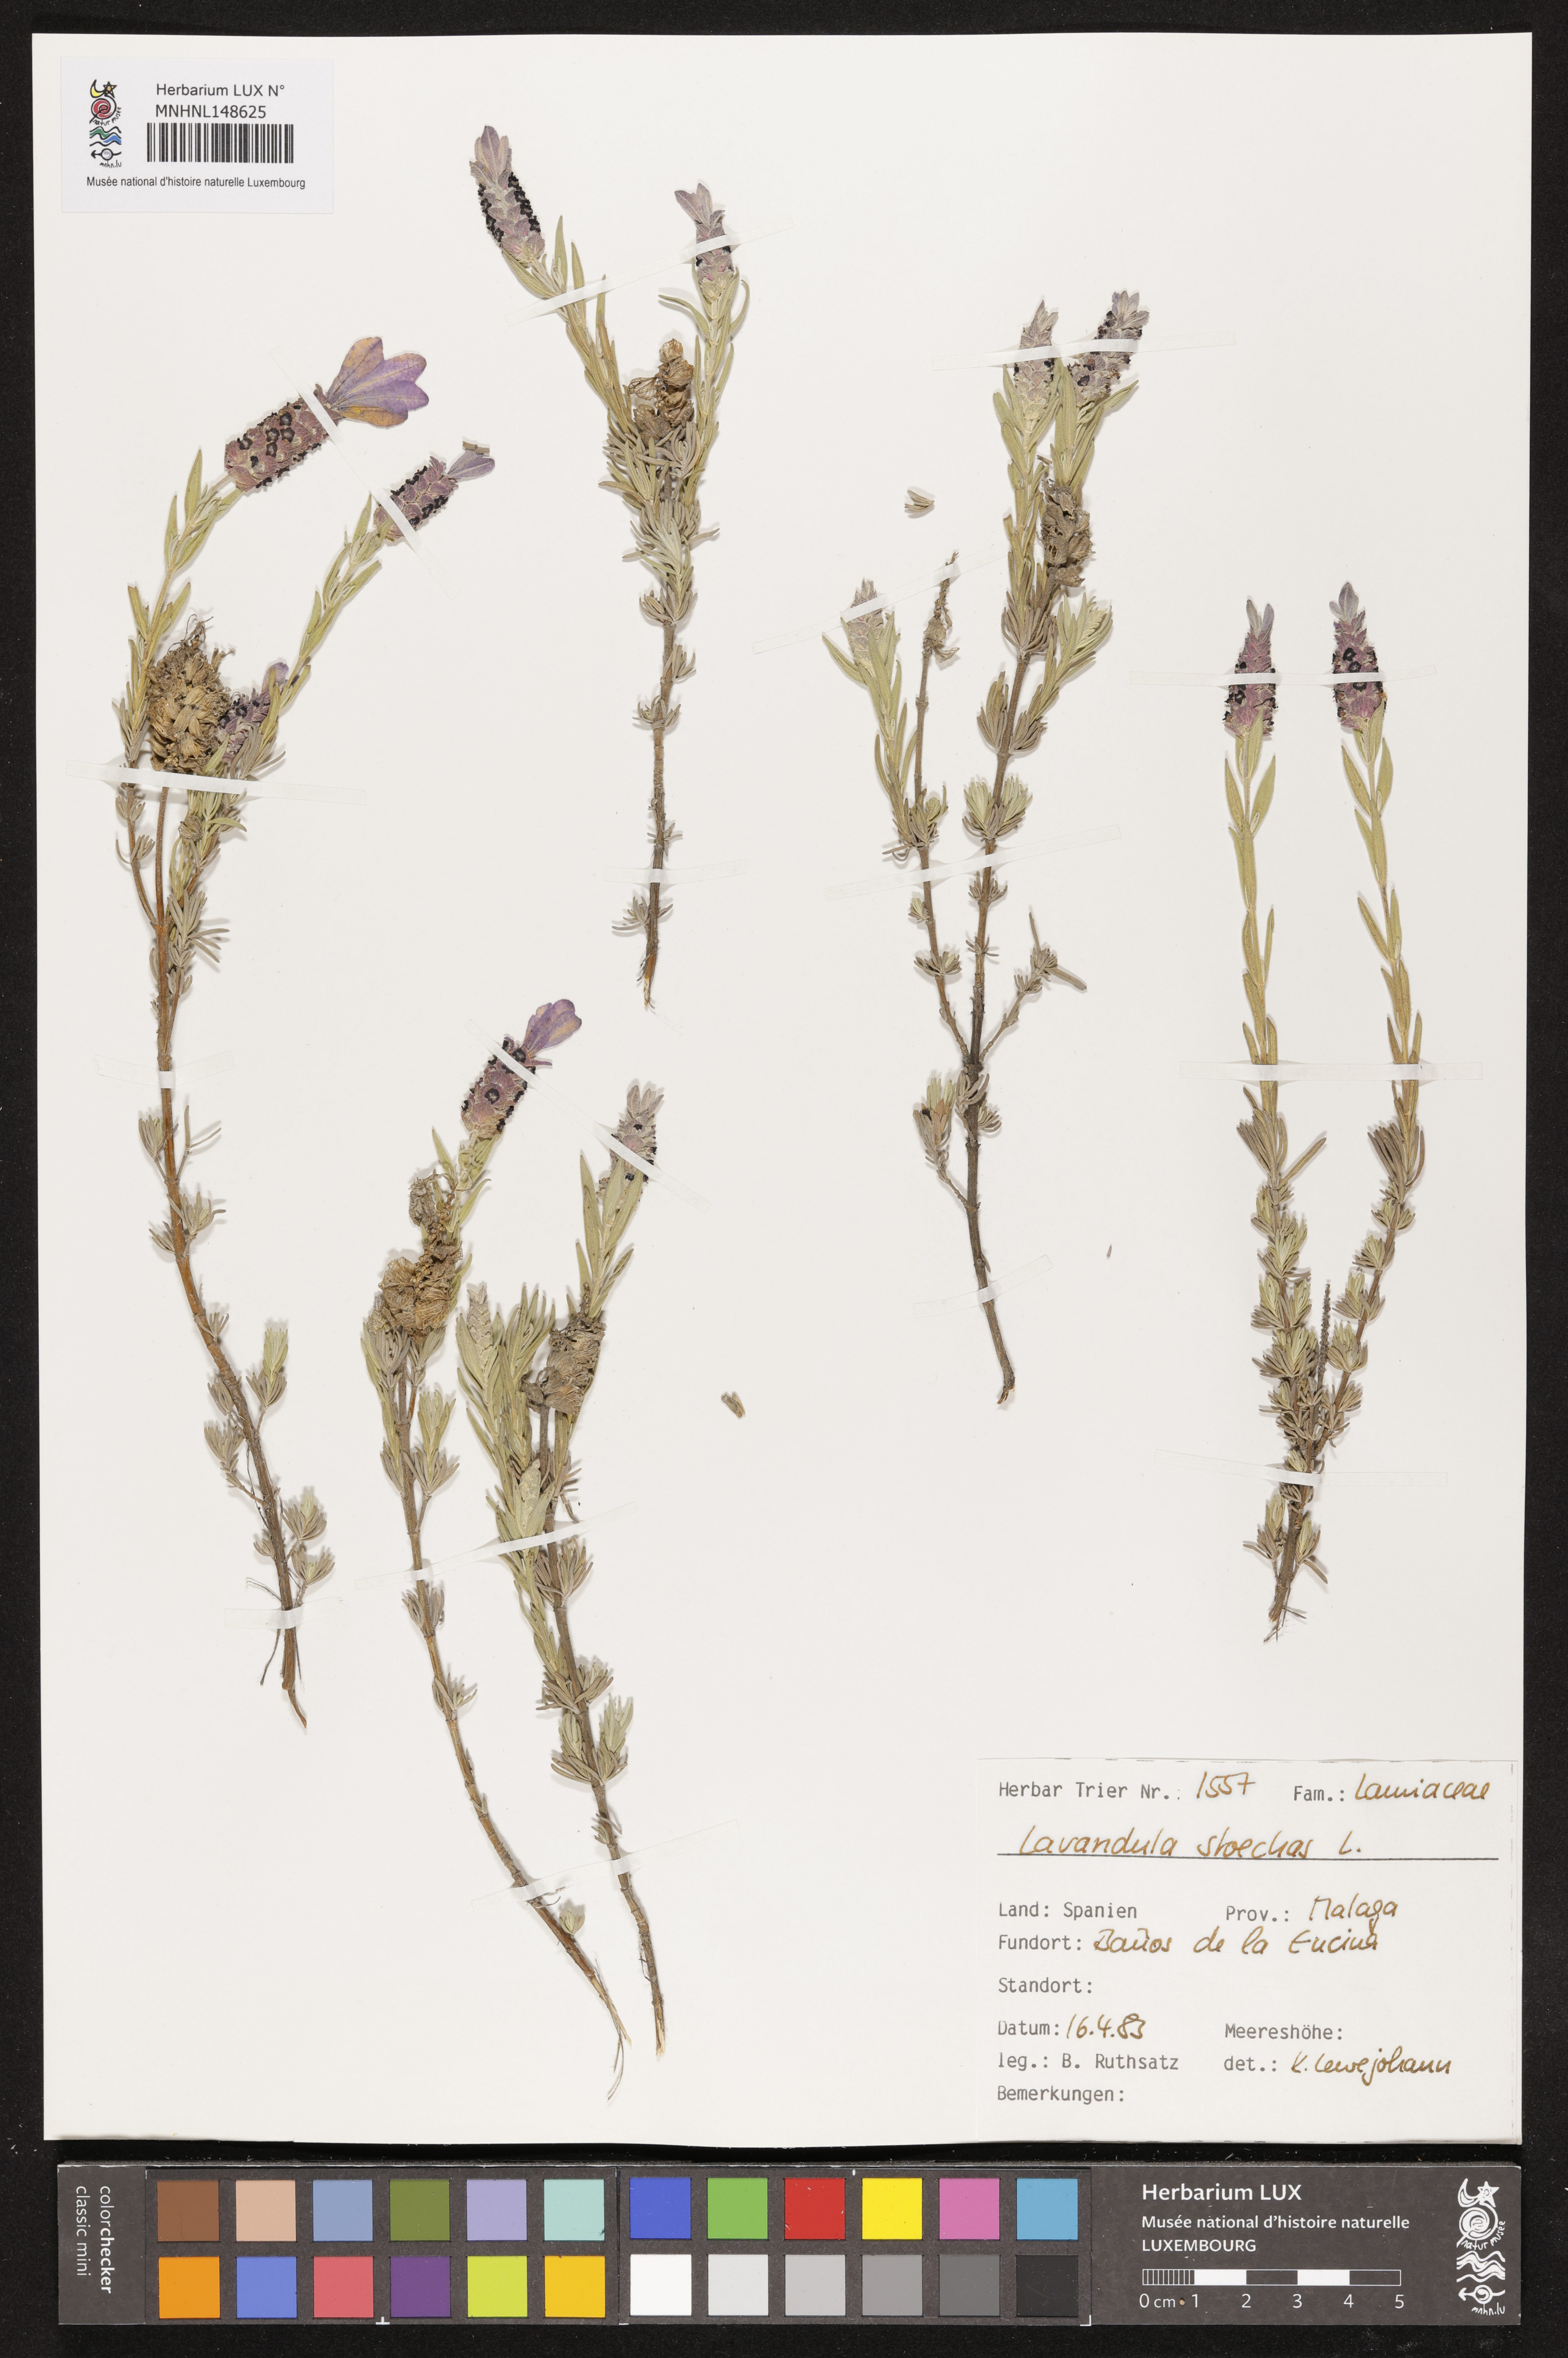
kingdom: Plantae
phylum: Tracheophyta
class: Magnoliopsida
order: Lamiales
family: Lamiaceae
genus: Lavandula
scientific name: Lavandula stoechas
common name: French lavender
